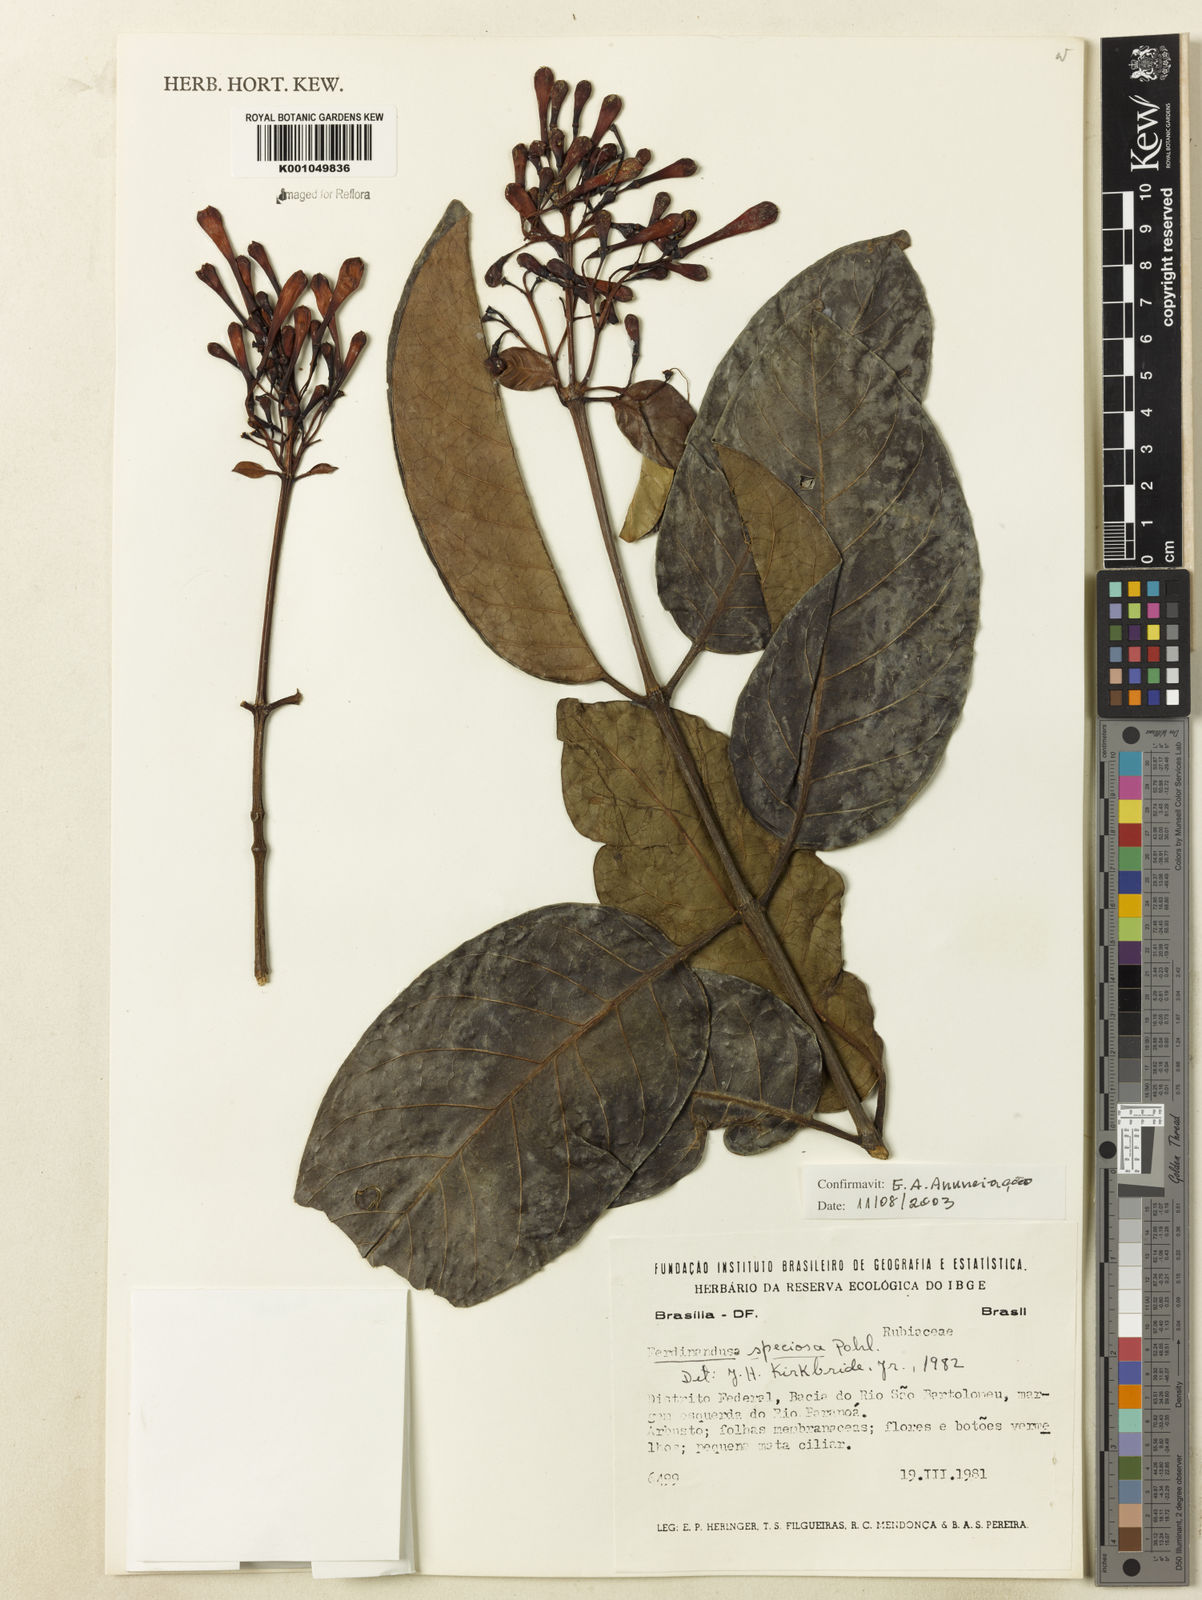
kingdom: Plantae
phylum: Tracheophyta
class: Magnoliopsida
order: Gentianales
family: Rubiaceae
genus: Ferdinandusa
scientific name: Ferdinandusa speciosa
